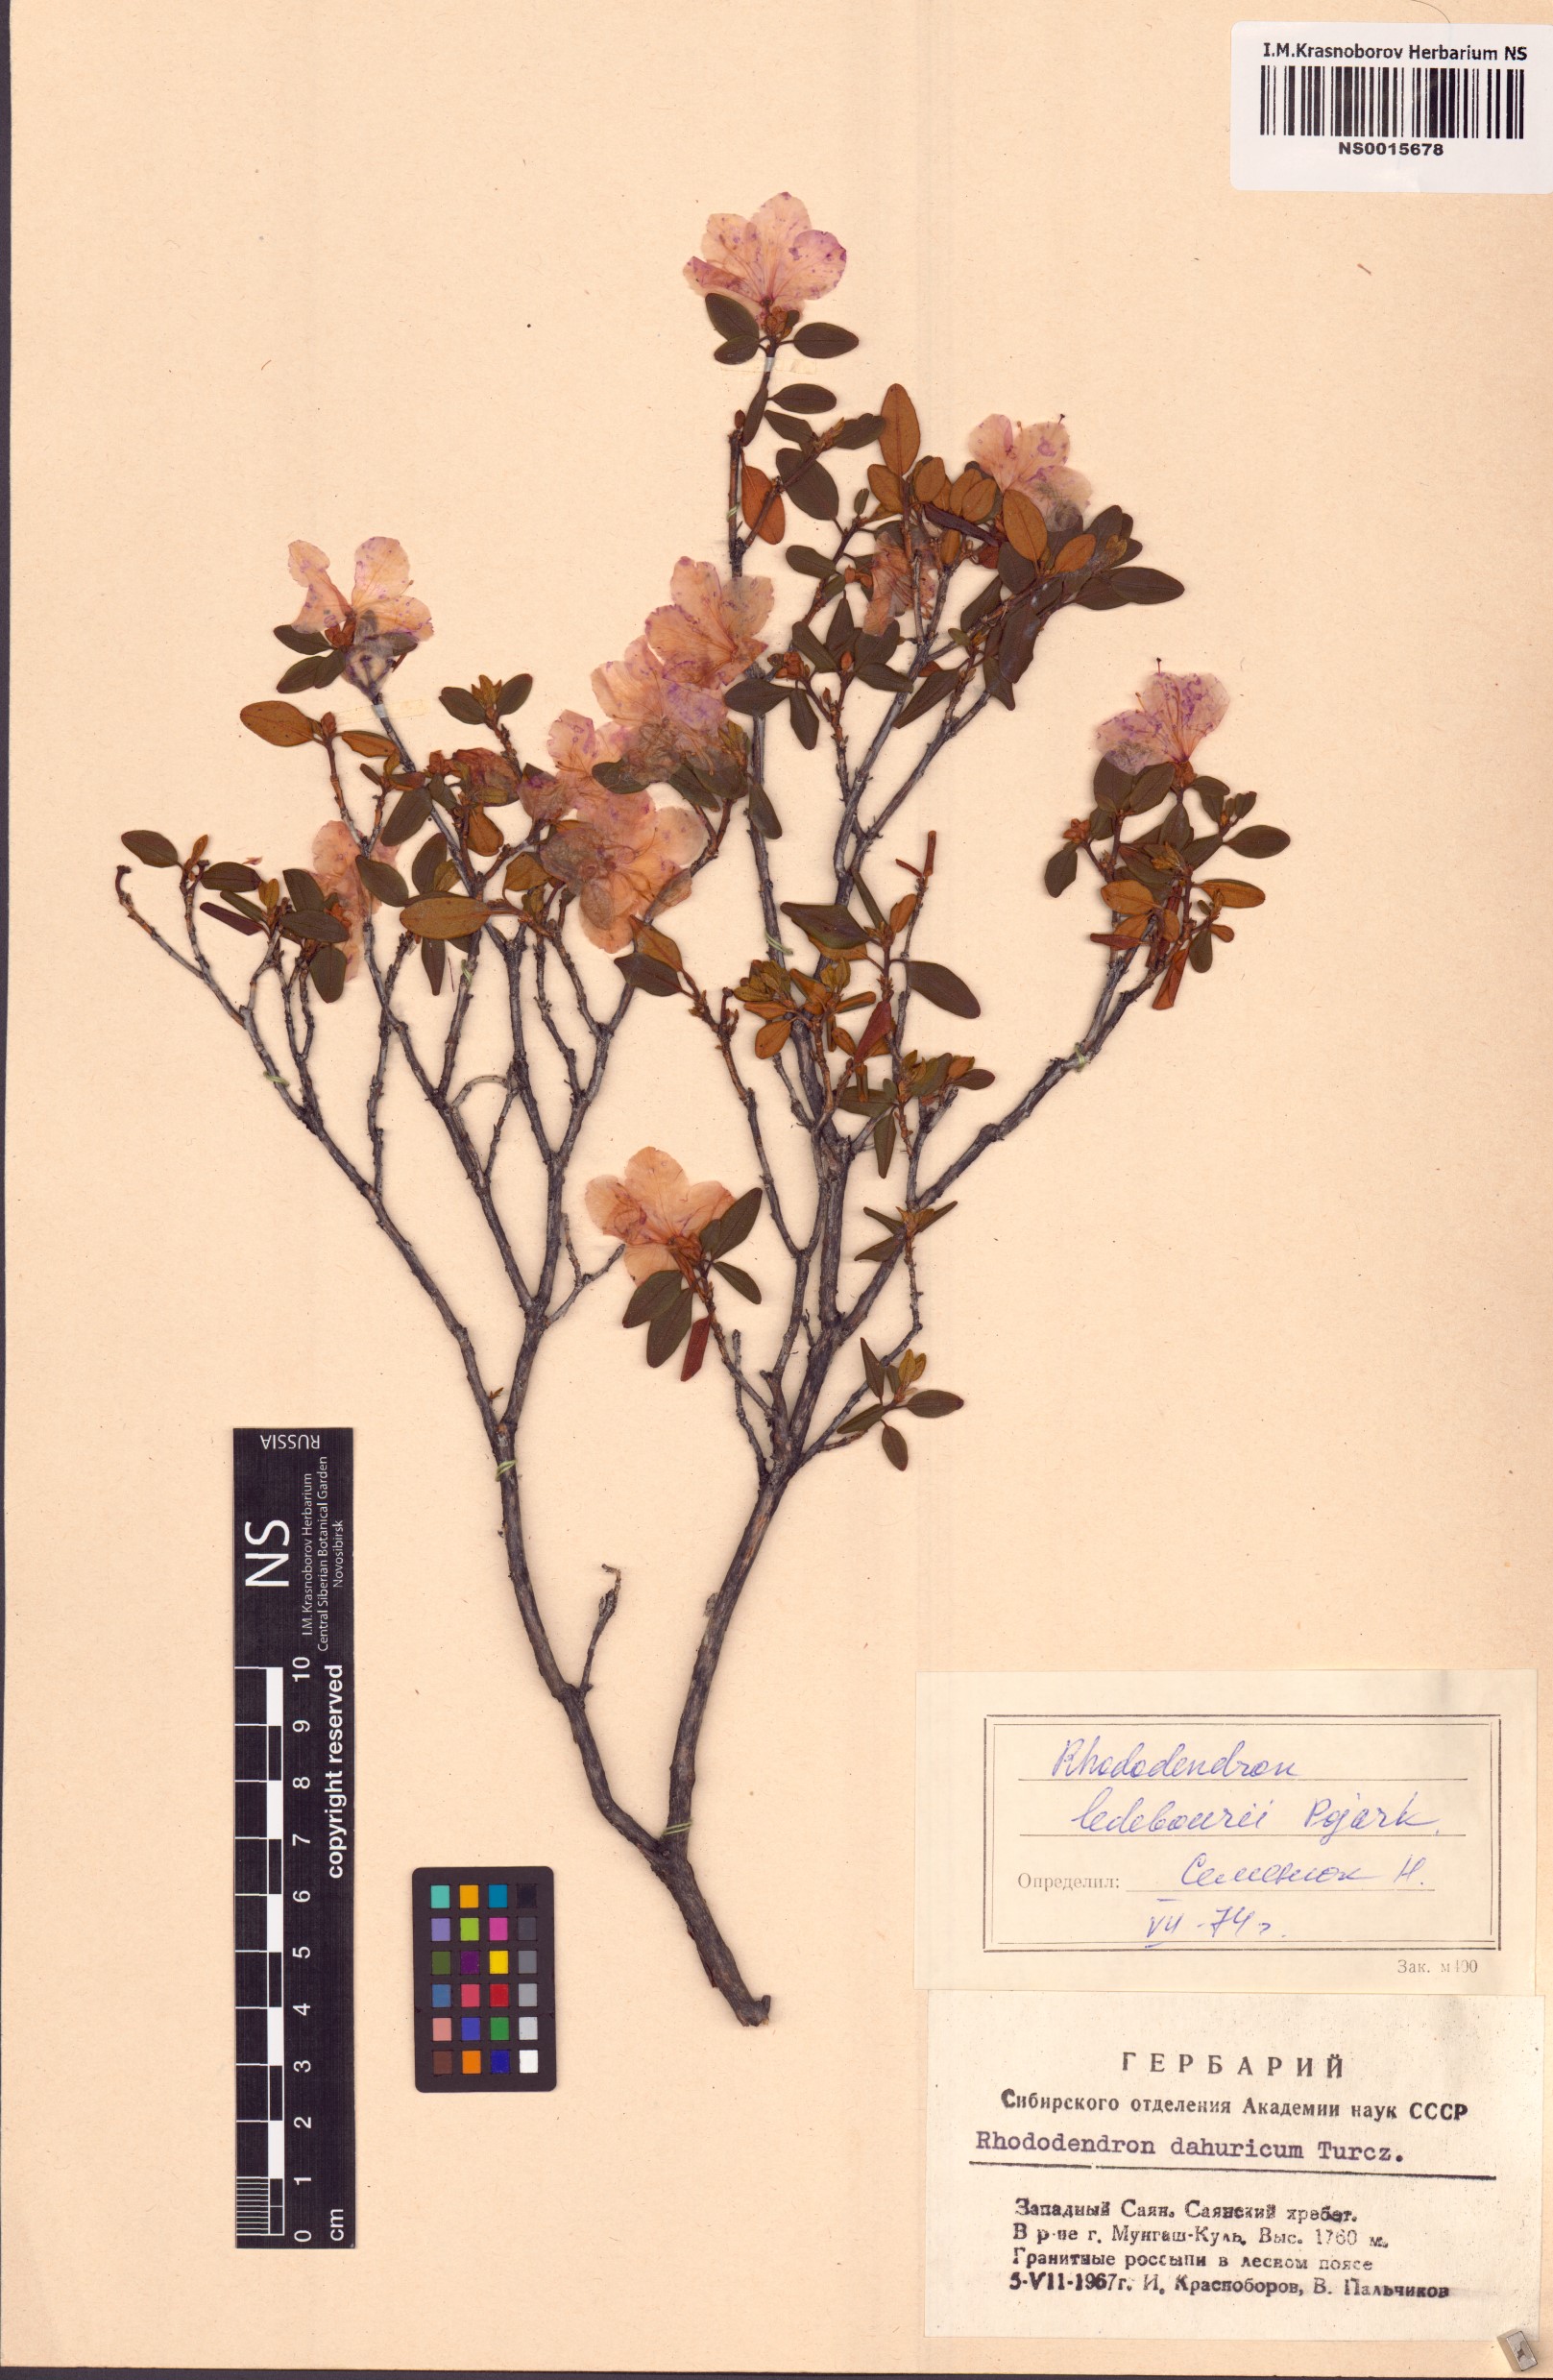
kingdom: Plantae
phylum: Tracheophyta
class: Magnoliopsida
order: Ericales
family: Ericaceae
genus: Rhododendron
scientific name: Rhododendron dauricum
